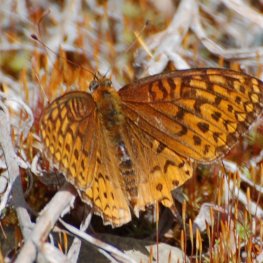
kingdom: Animalia
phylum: Arthropoda
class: Insecta
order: Lepidoptera
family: Nymphalidae
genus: Speyeria
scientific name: Speyeria cybele
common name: Great Spangled Fritillary
